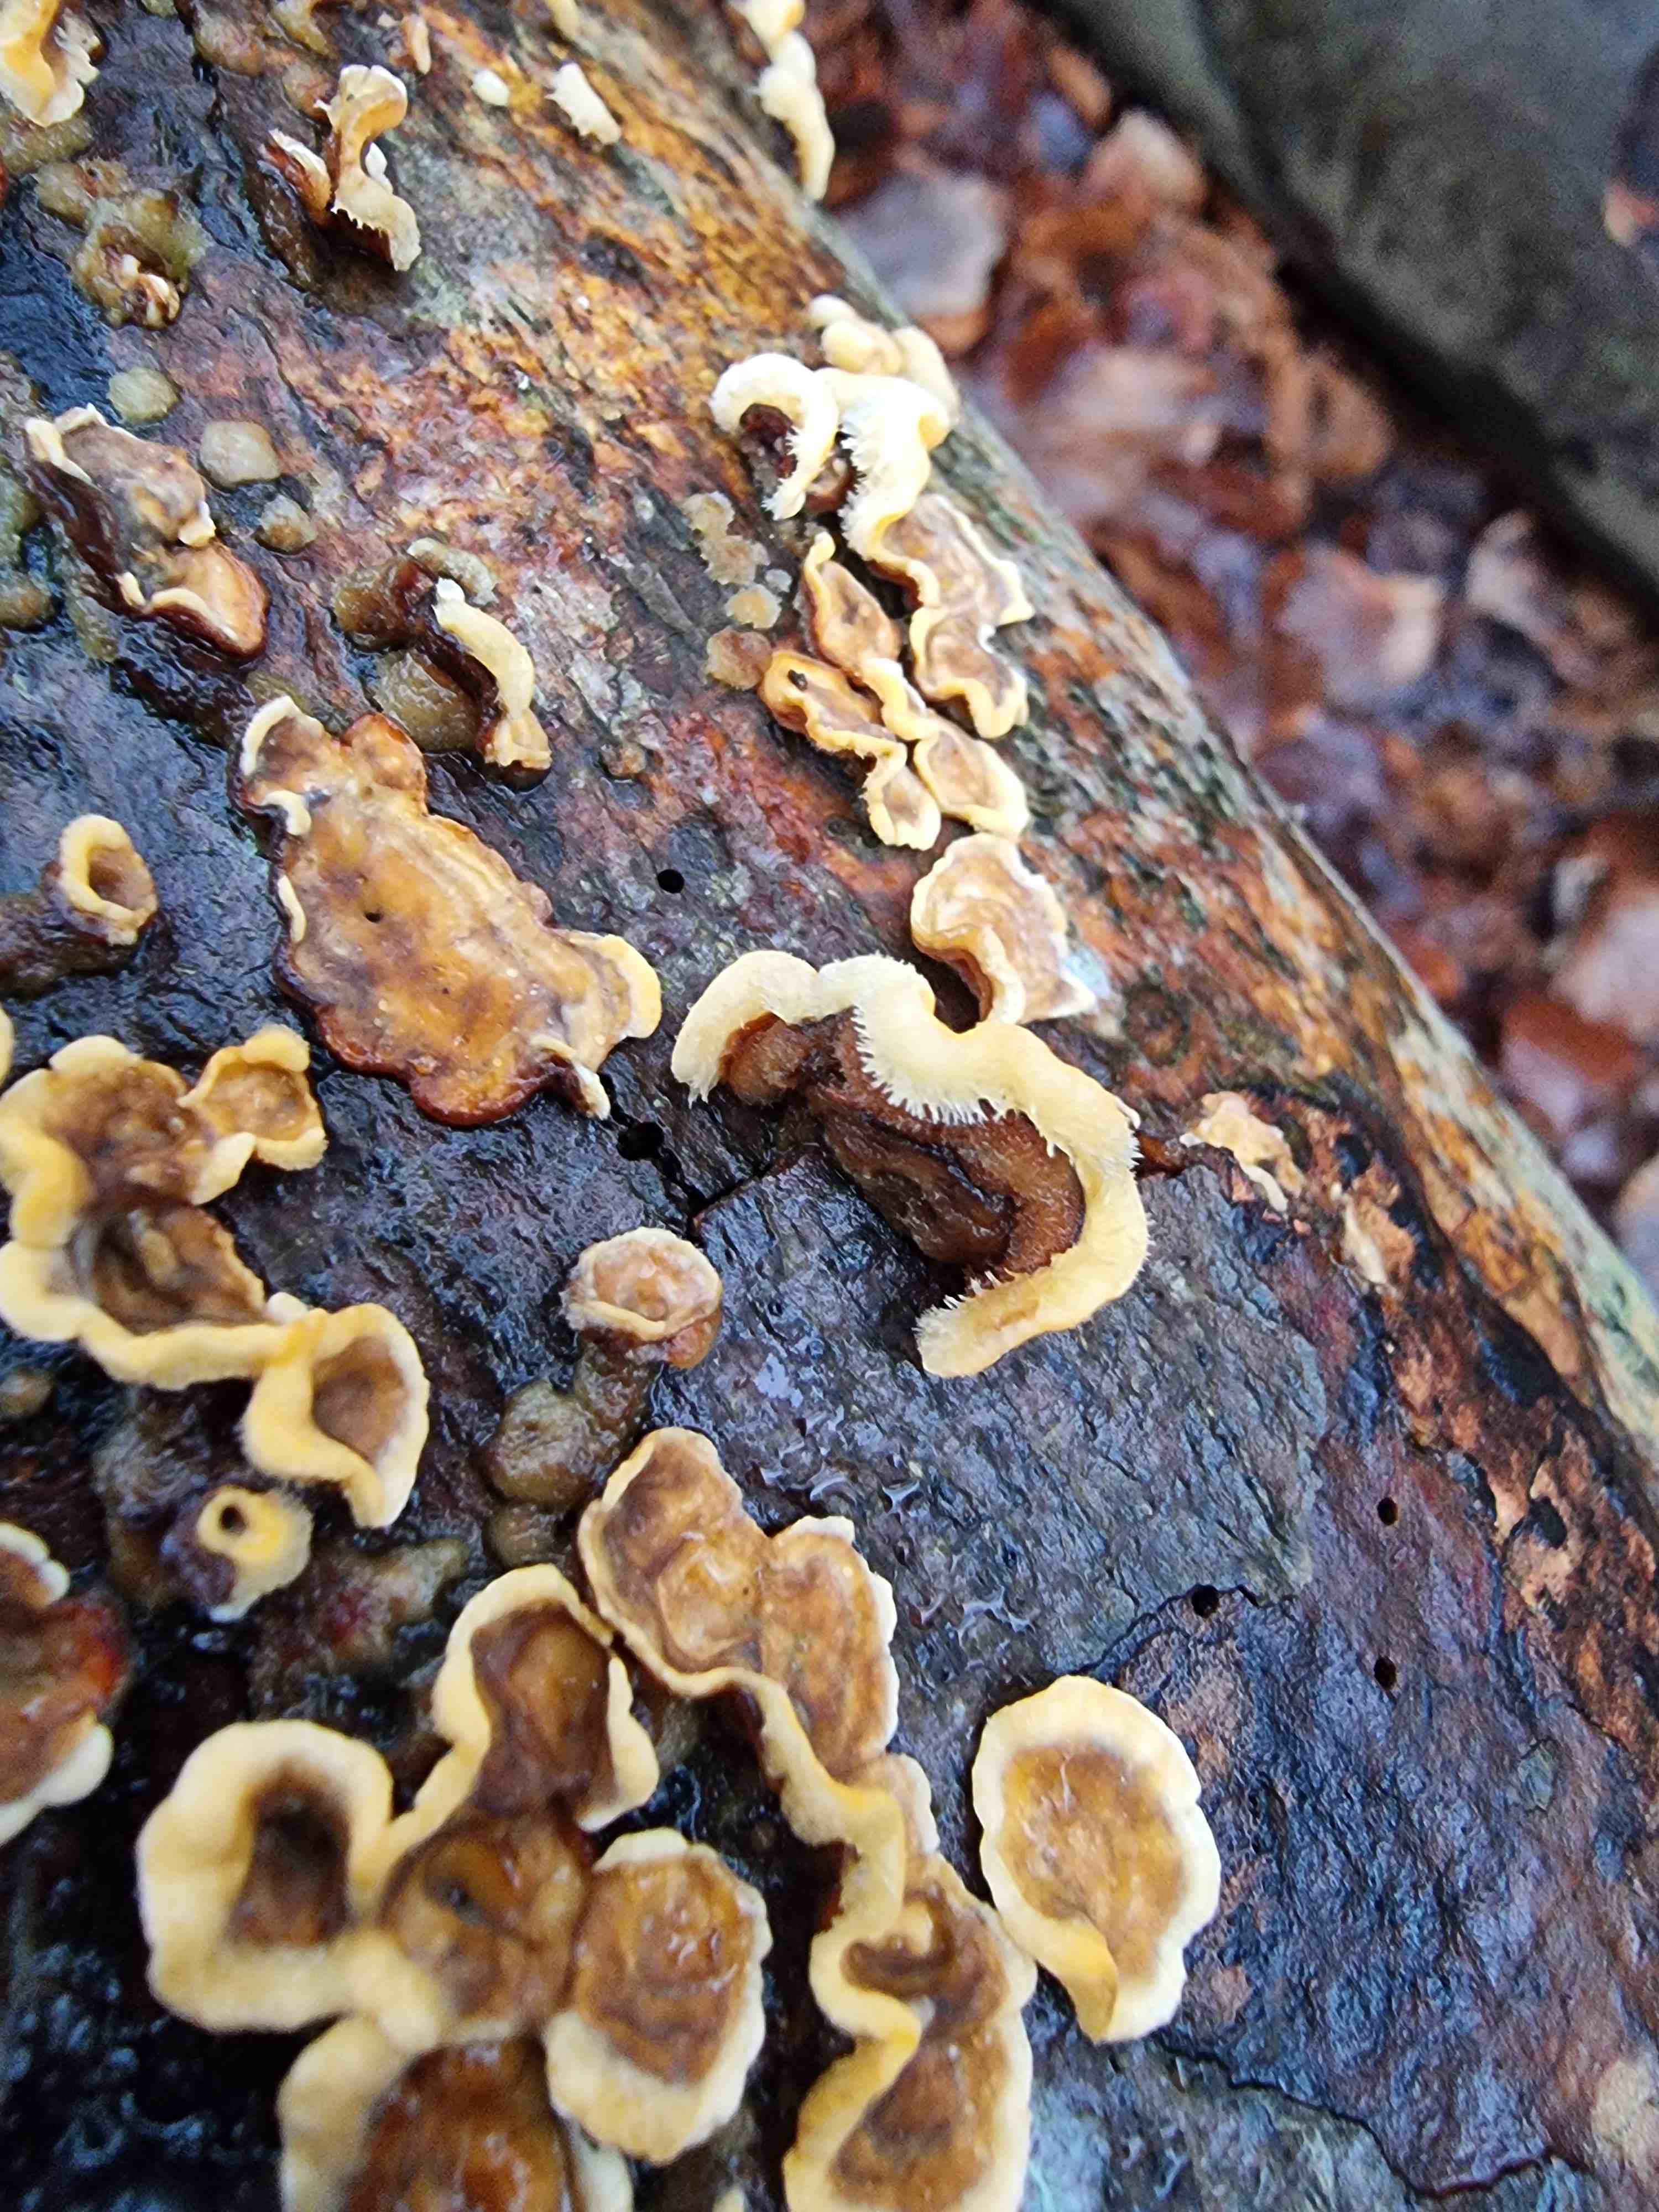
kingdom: Fungi
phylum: Basidiomycota
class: Agaricomycetes
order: Russulales
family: Stereaceae
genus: Stereum
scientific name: Stereum hirsutum
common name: håret lædersvamp
